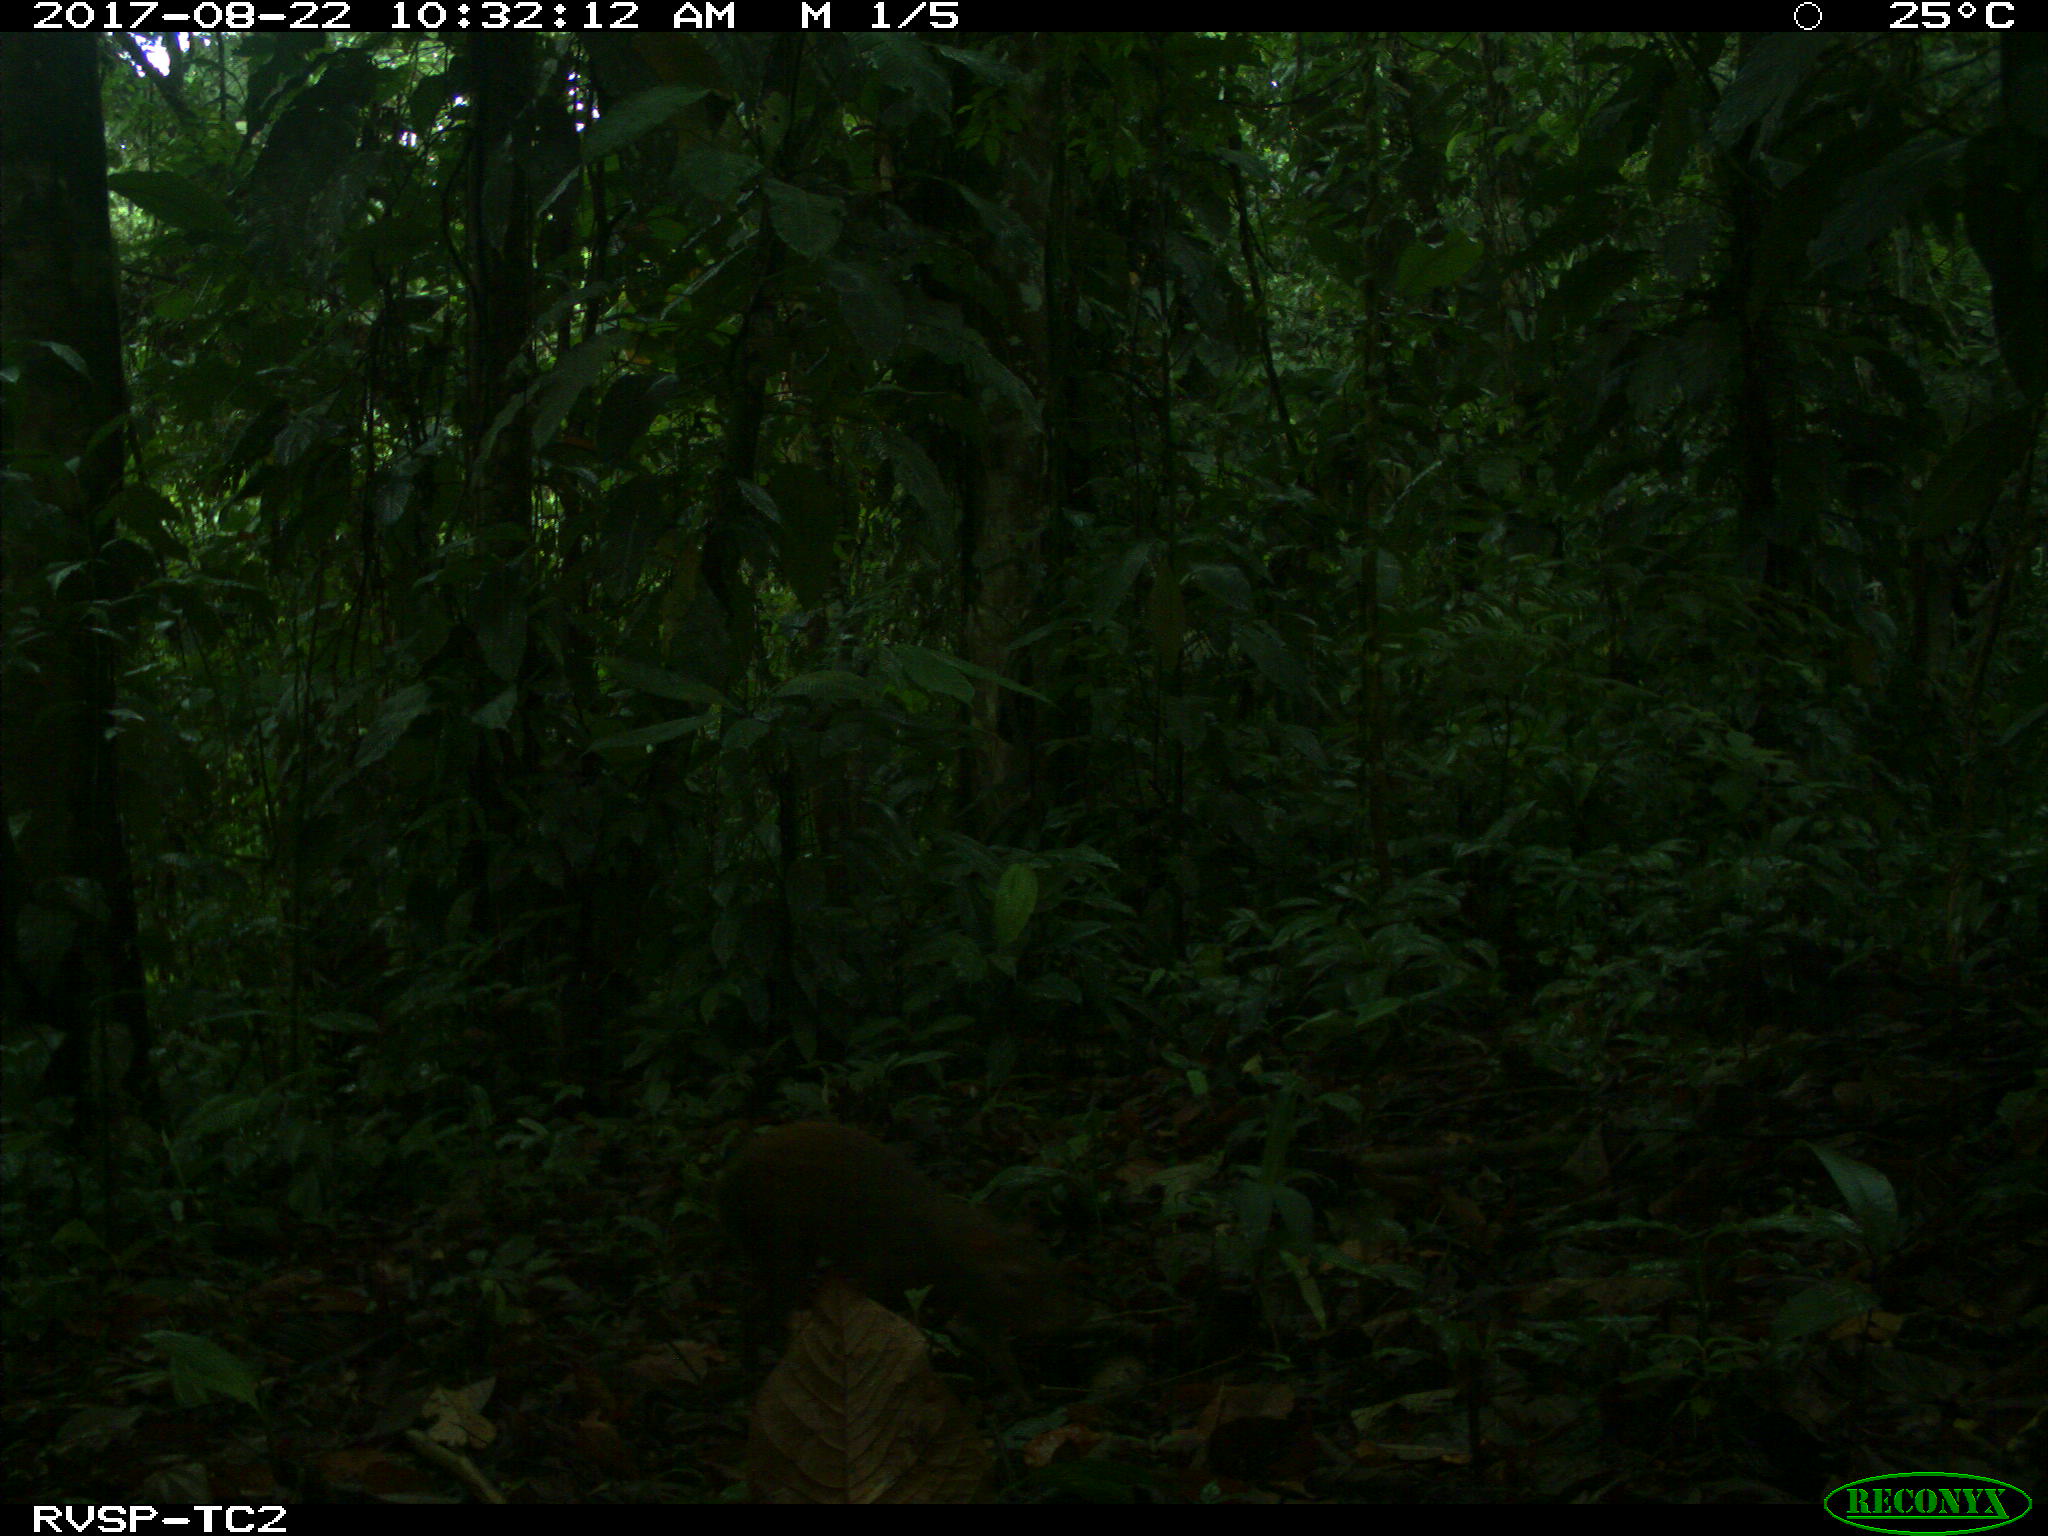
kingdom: Animalia
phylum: Chordata
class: Mammalia
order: Rodentia
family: Dasyproctidae
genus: Dasyprocta
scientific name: Dasyprocta punctata
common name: Central american agouti
